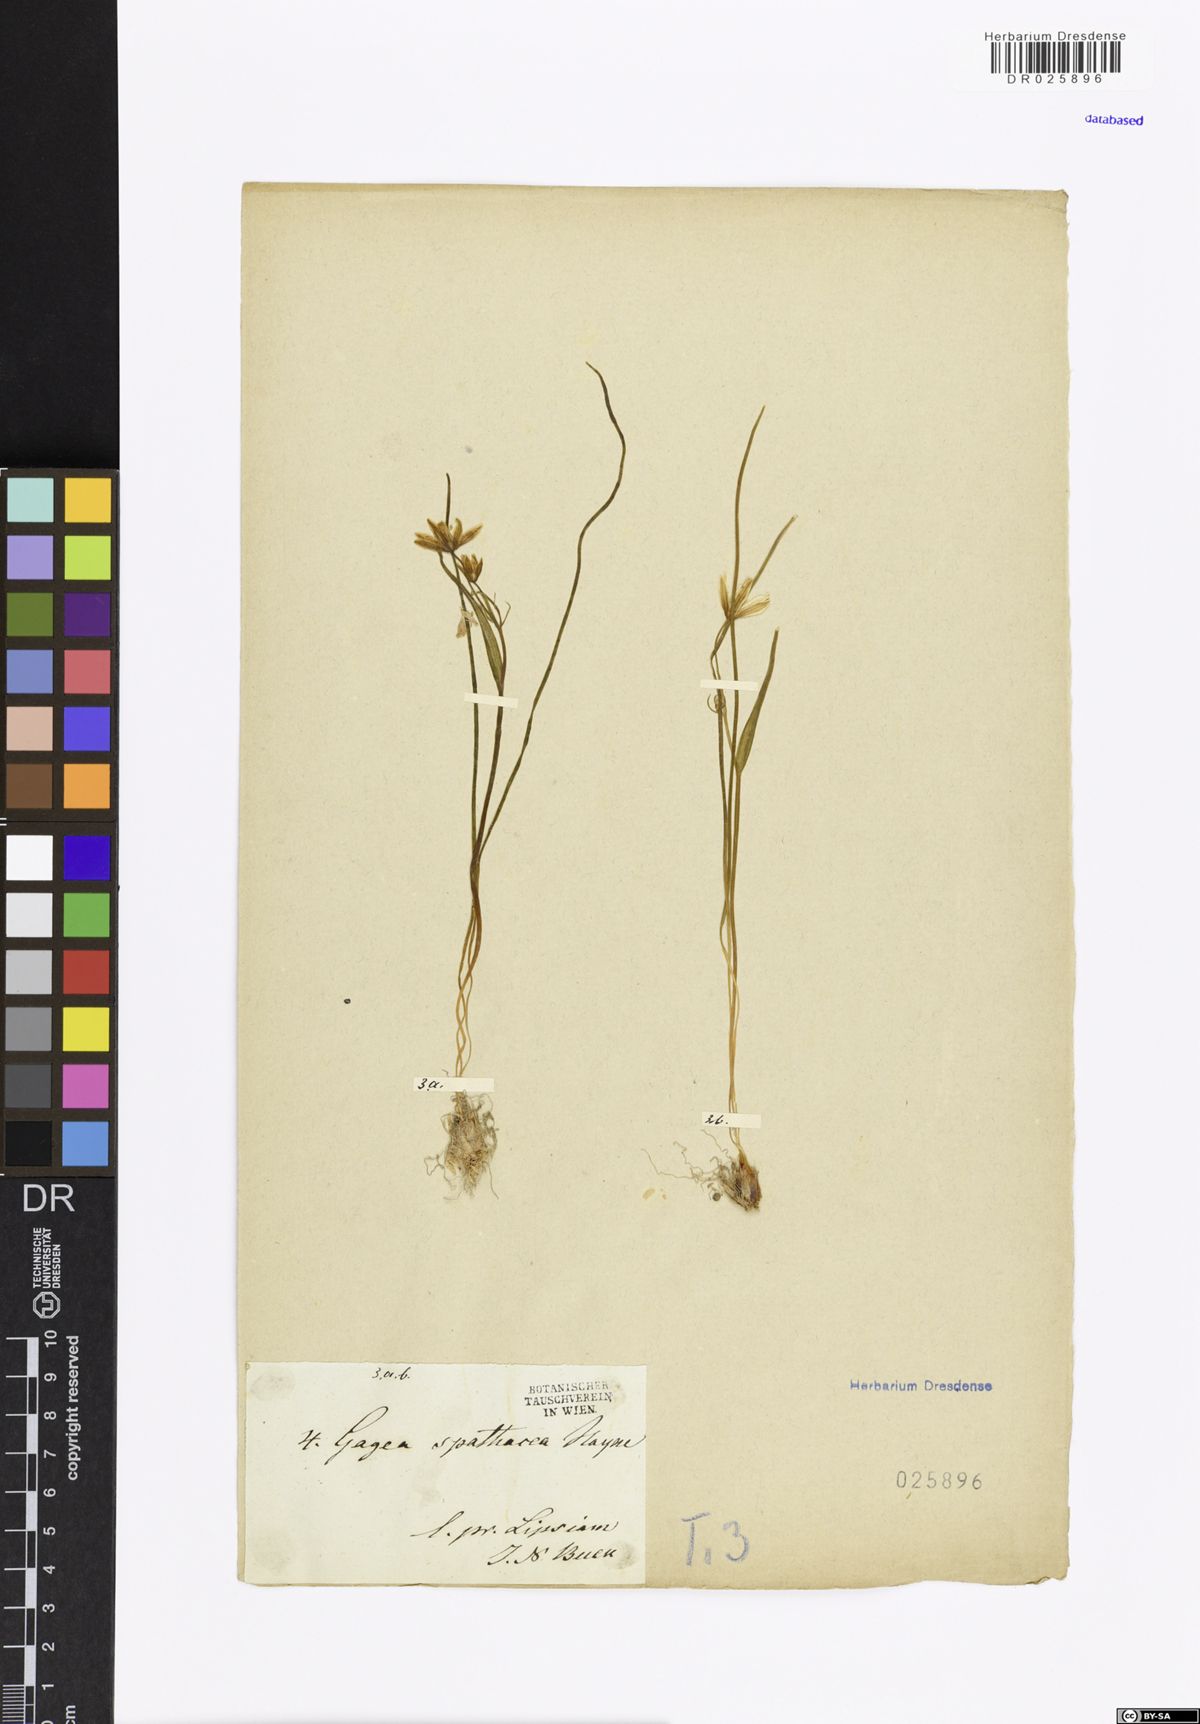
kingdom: Plantae
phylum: Tracheophyta
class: Liliopsida
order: Liliales
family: Liliaceae
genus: Gagea
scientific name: Gagea spathacea
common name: Belgian gagea
